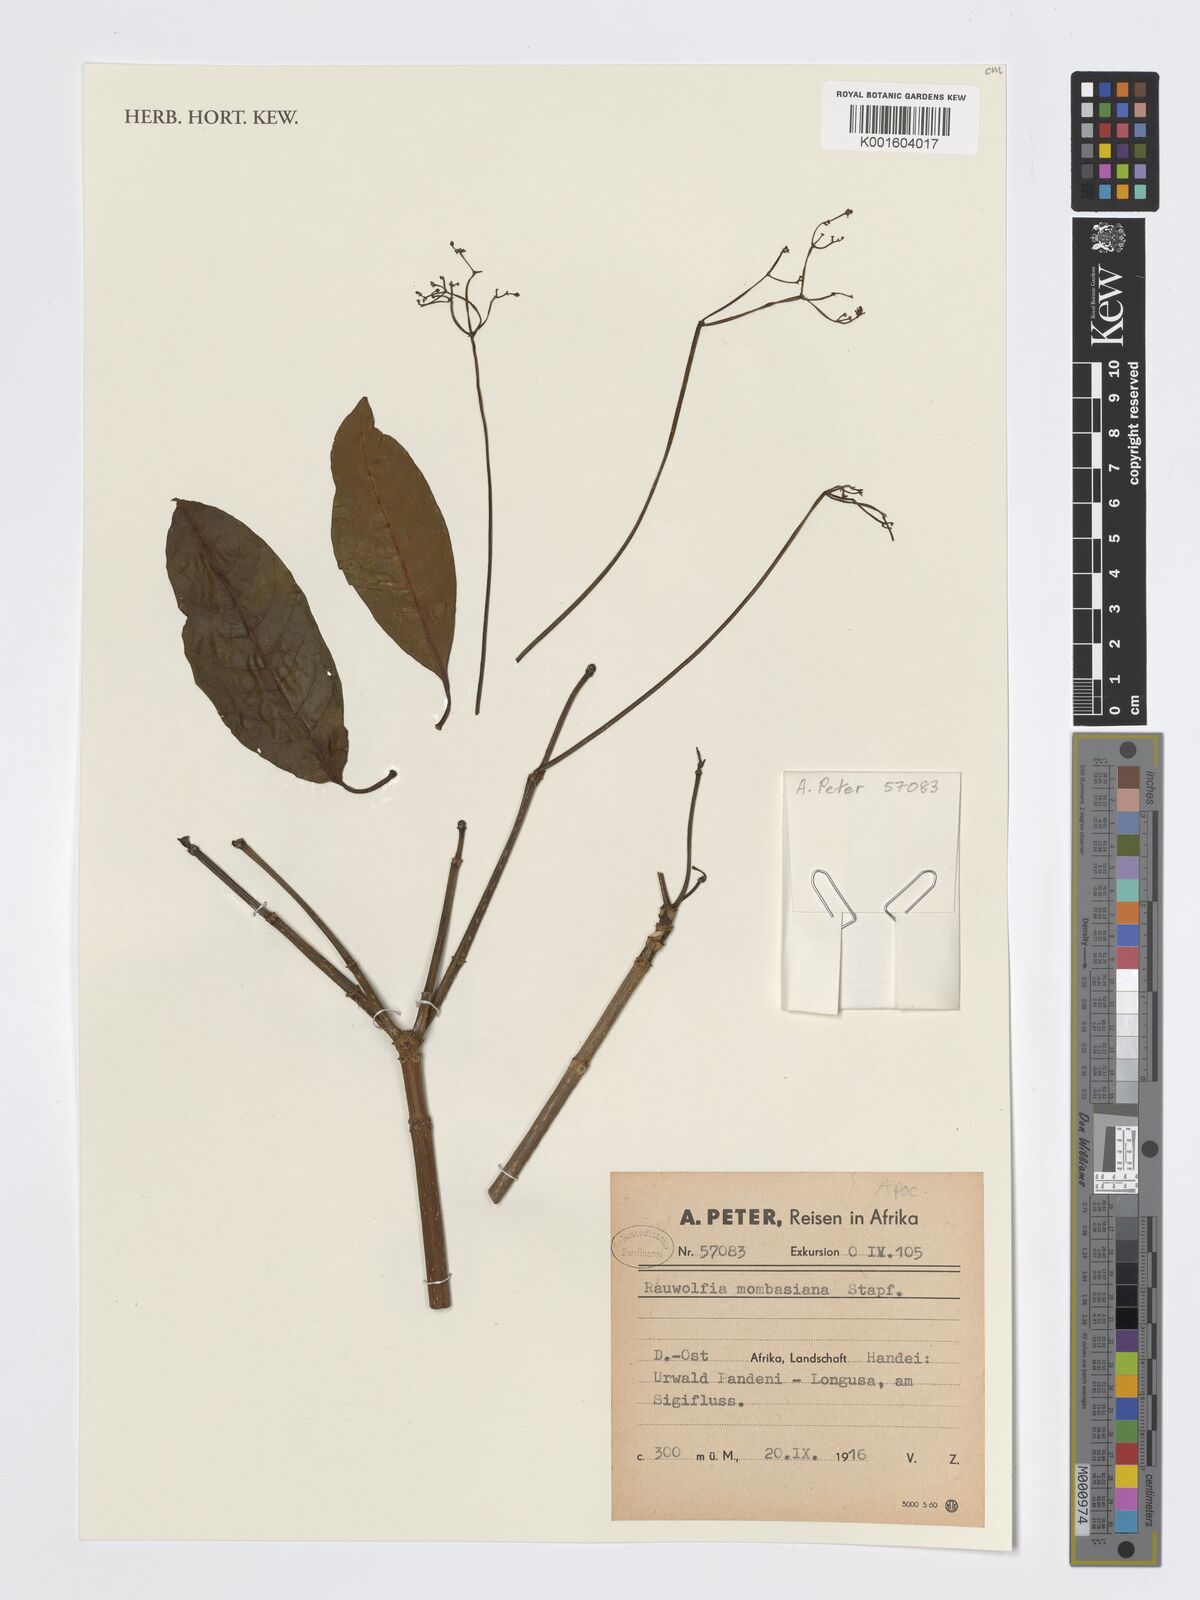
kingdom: Plantae
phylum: Tracheophyta
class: Magnoliopsida
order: Gentianales
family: Apocynaceae
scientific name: Apocynaceae
